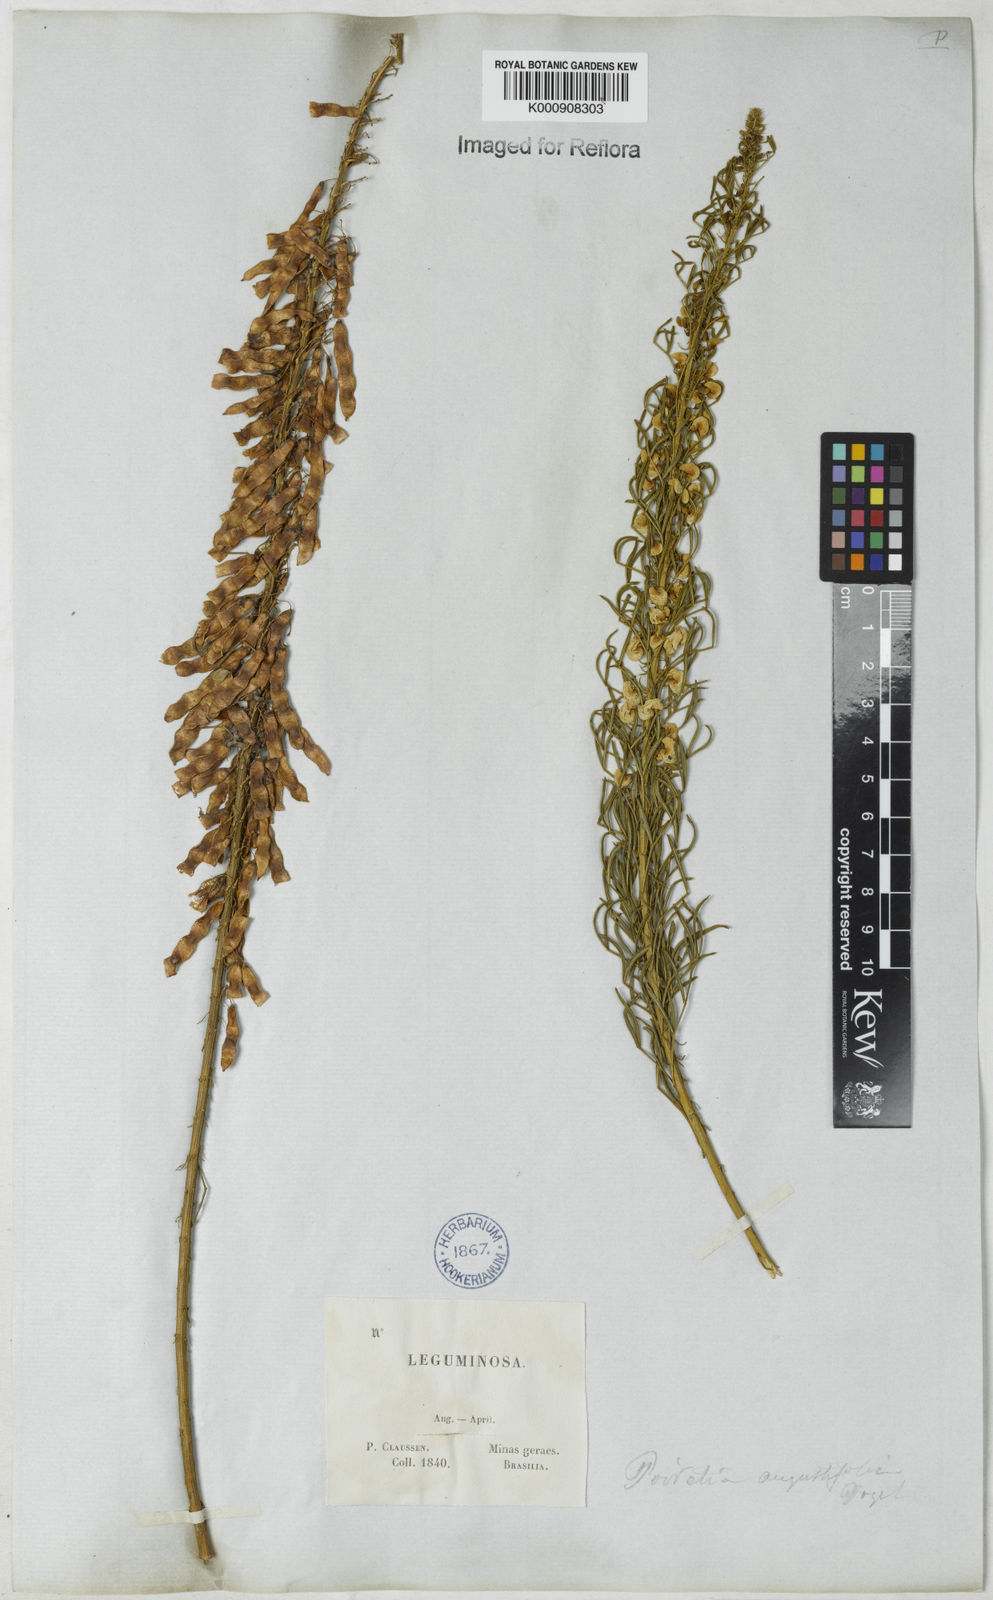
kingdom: Plantae
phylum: Tracheophyta
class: Magnoliopsida
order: Fabales
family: Fabaceae
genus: Poiretia
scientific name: Poiretia angustifolia
